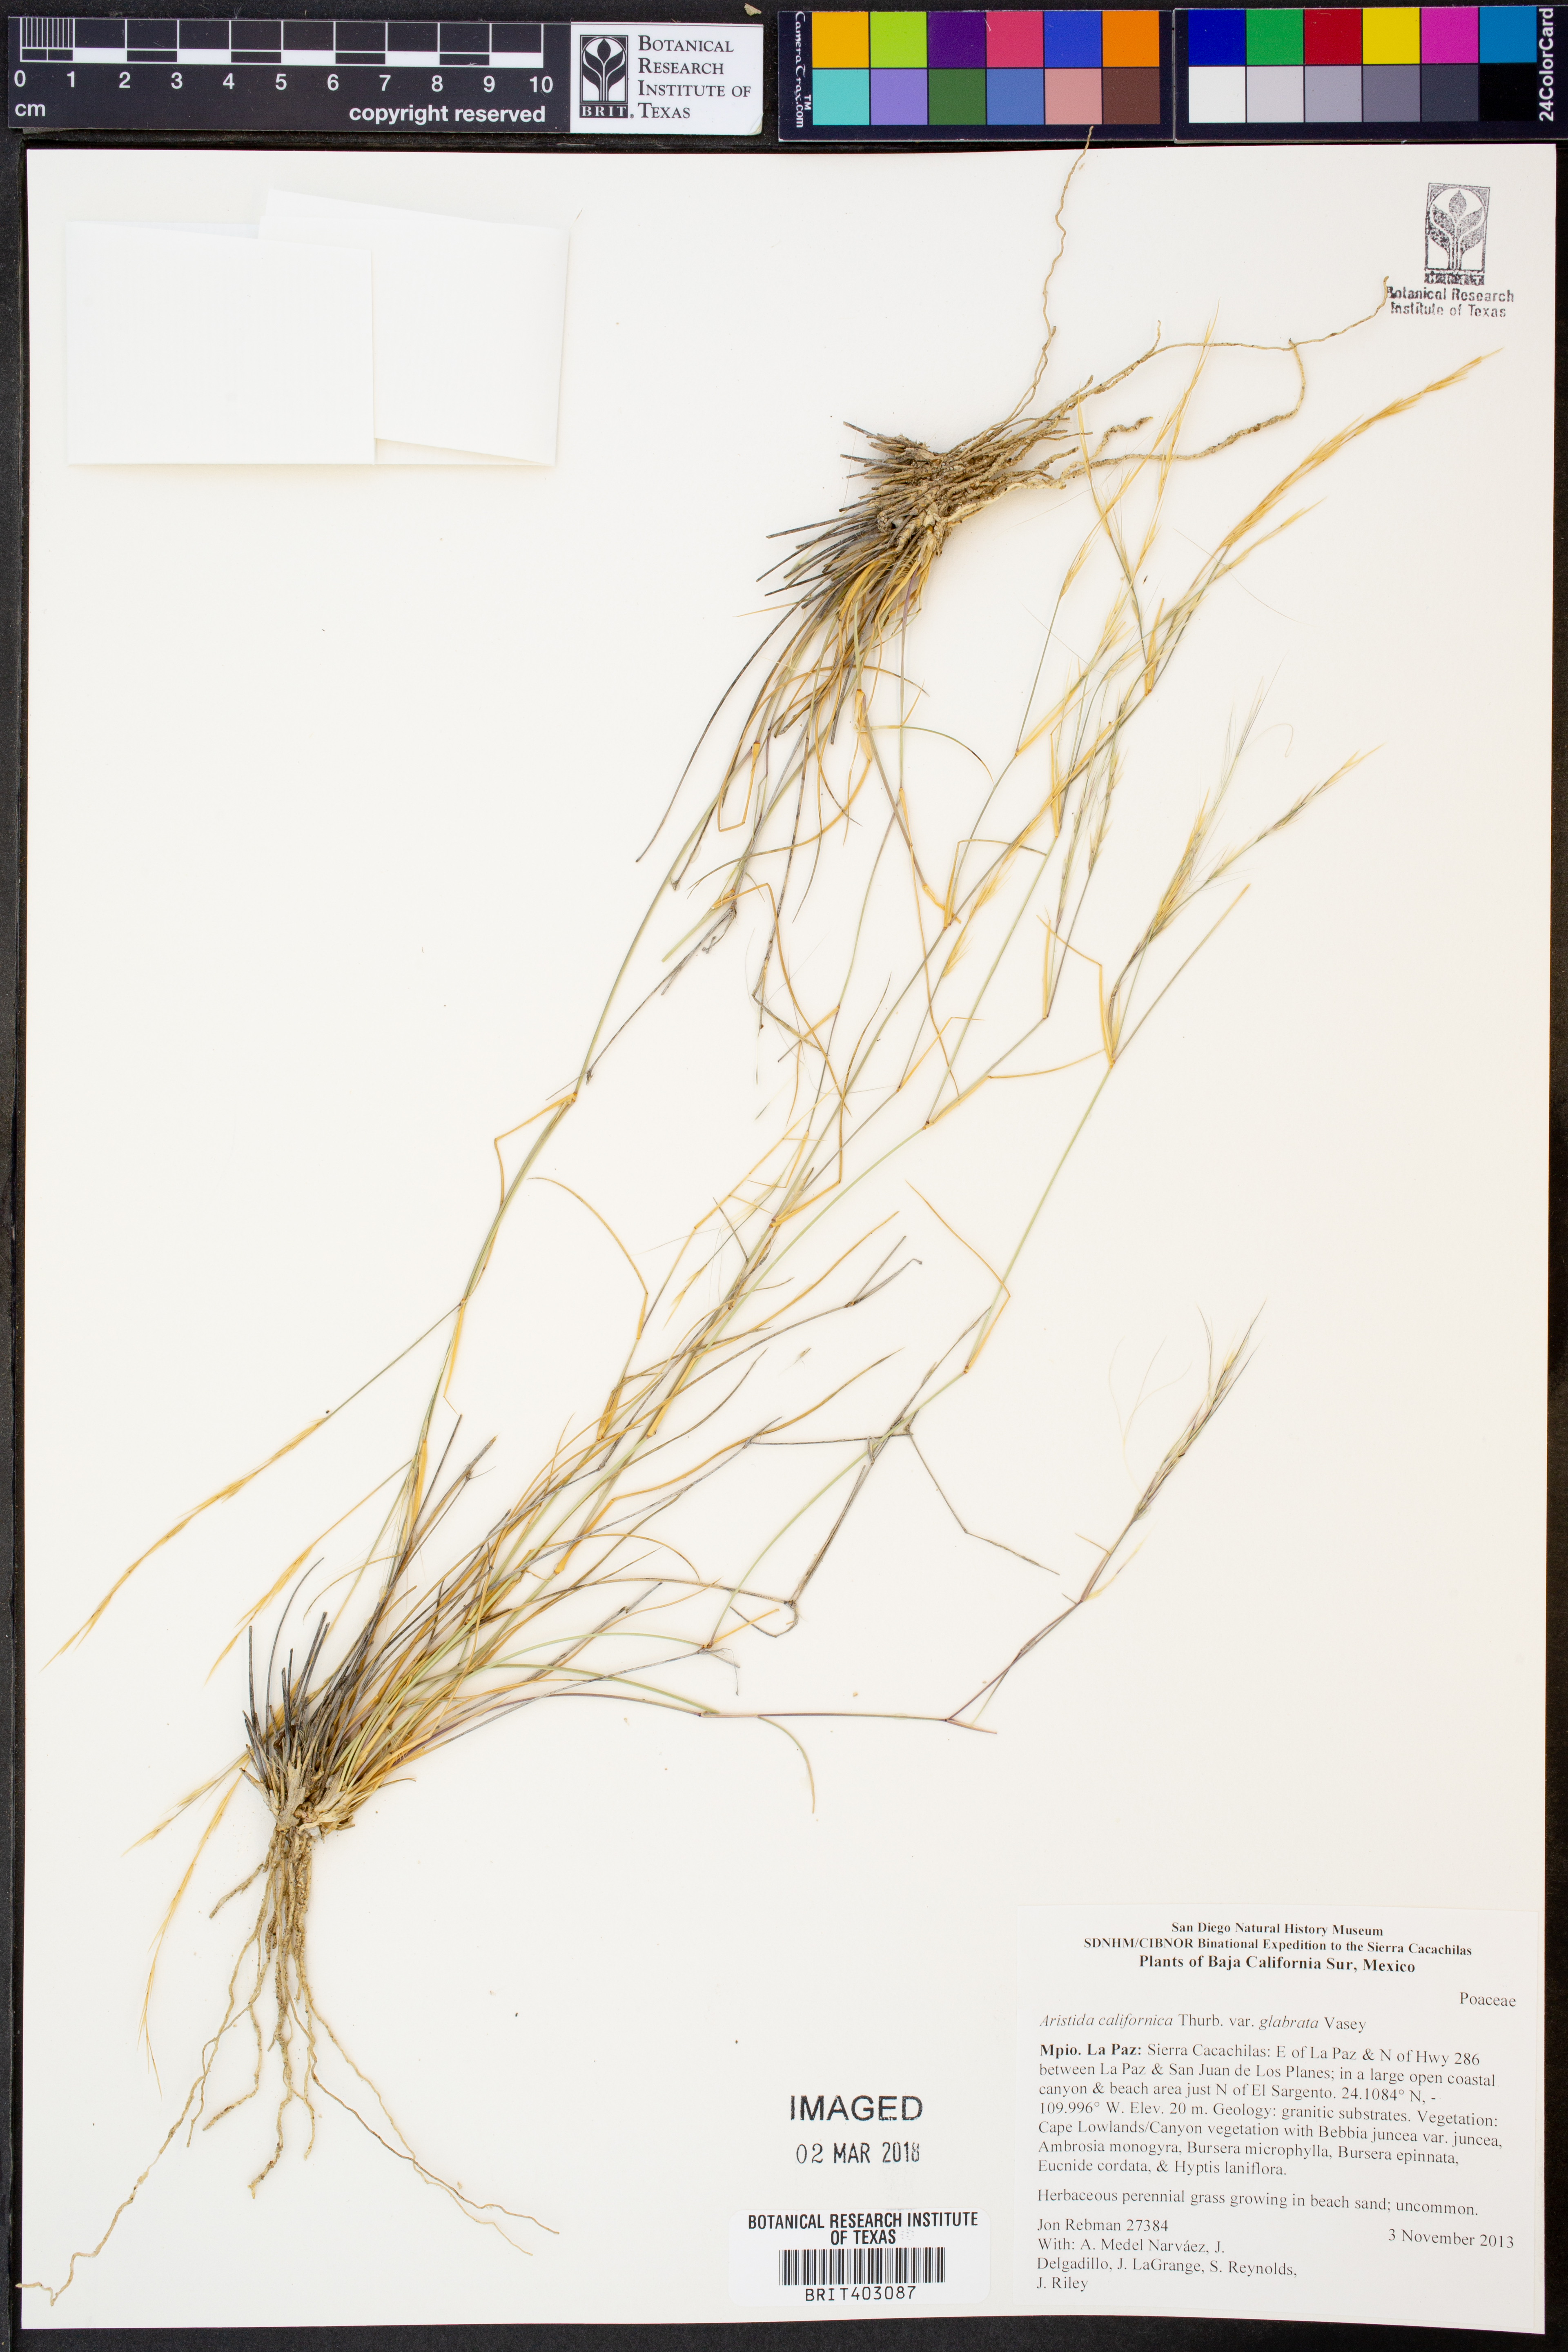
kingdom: Plantae
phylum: Tracheophyta
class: Liliopsida
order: Poales
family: Poaceae
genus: Aristida
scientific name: Aristida glabrata
